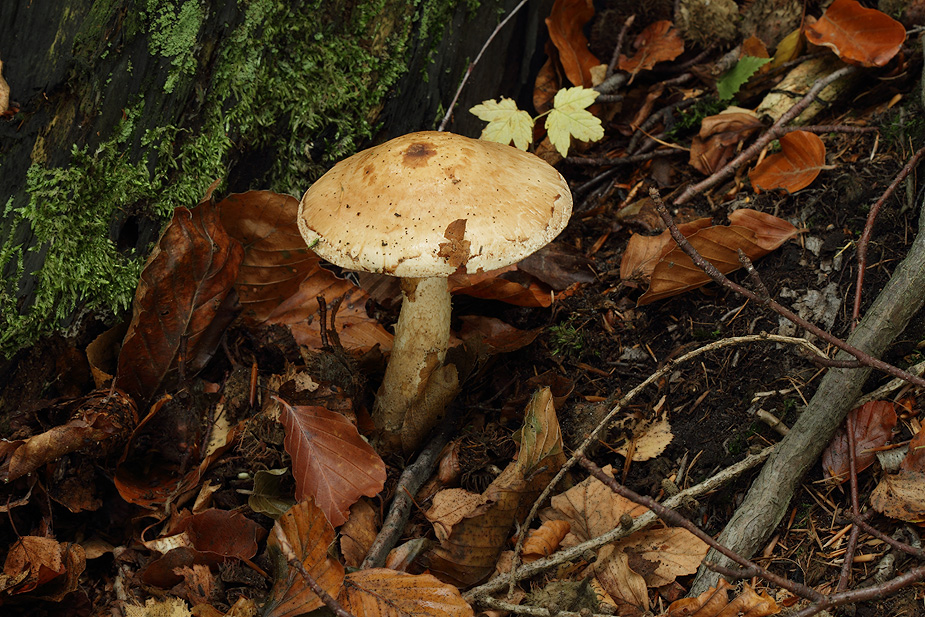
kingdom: Fungi
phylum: Basidiomycota
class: Agaricomycetes
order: Agaricales
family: Hymenogastraceae
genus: Hebeloma
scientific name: Hebeloma radicosum
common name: pælerods-tåreblad
